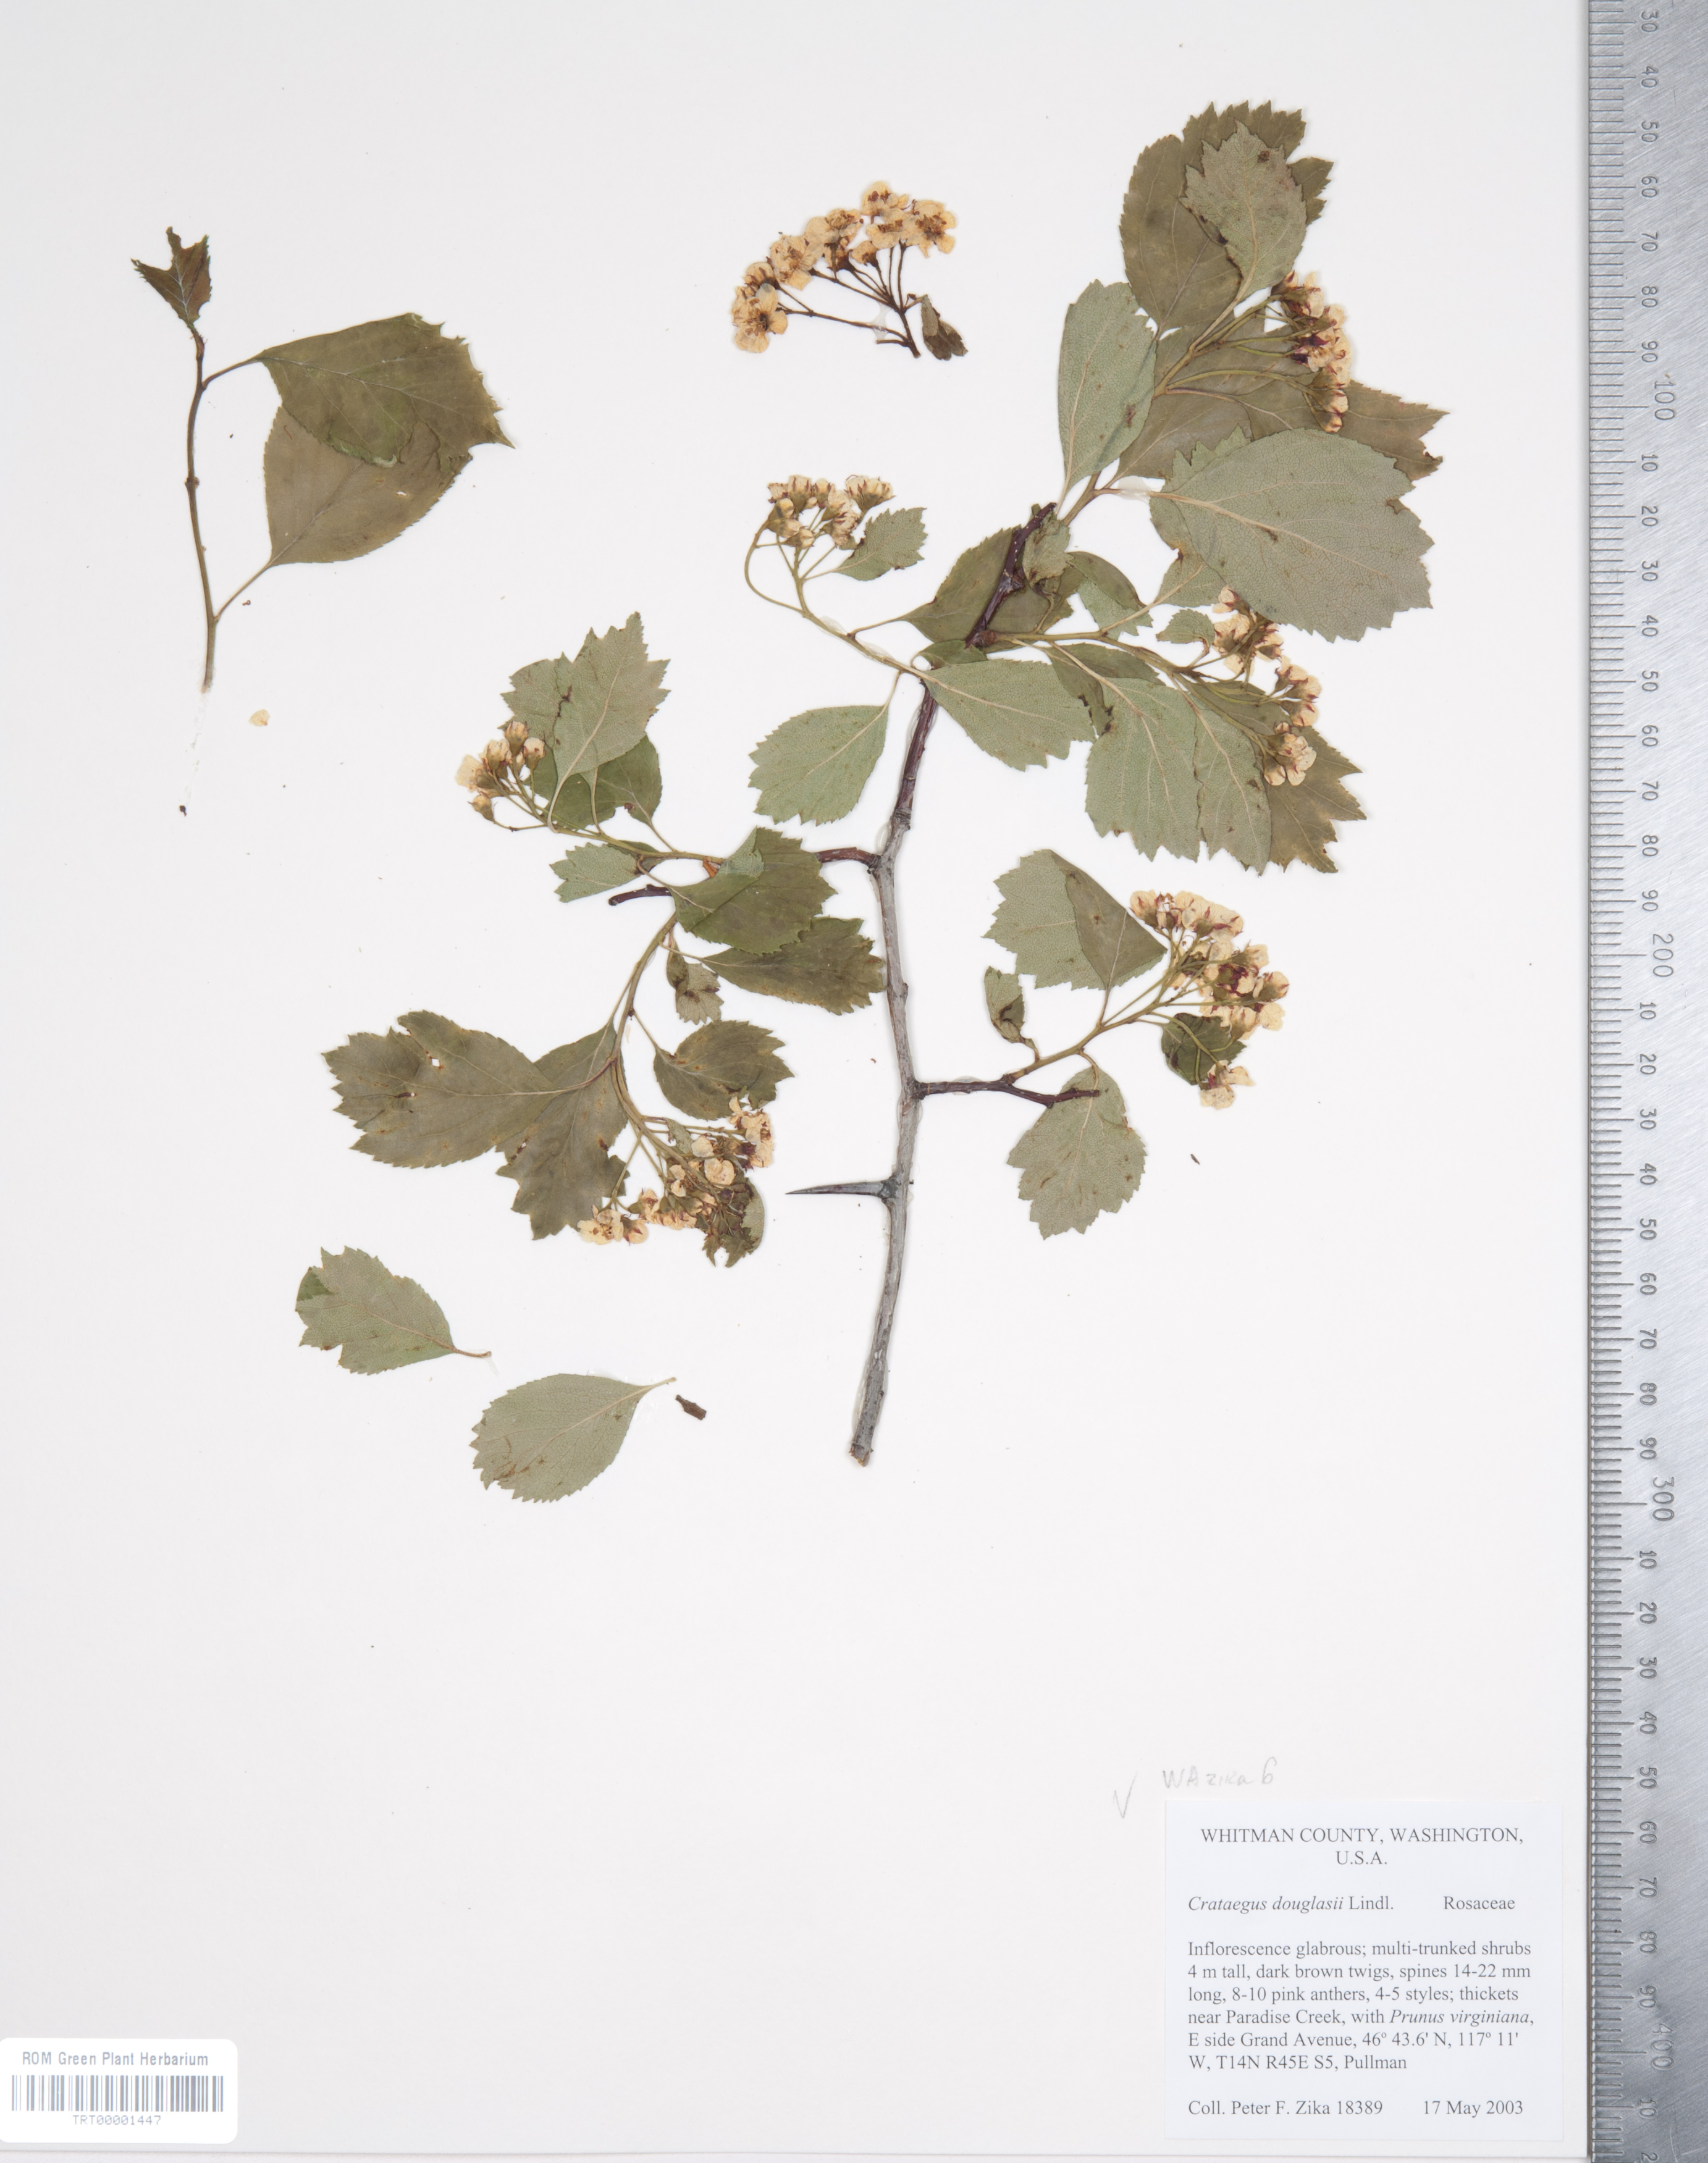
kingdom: Plantae
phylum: Tracheophyta
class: Magnoliopsida
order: Rosales
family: Rosaceae
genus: Crataegus
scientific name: Crataegus douglasii
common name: Black hawthorn
